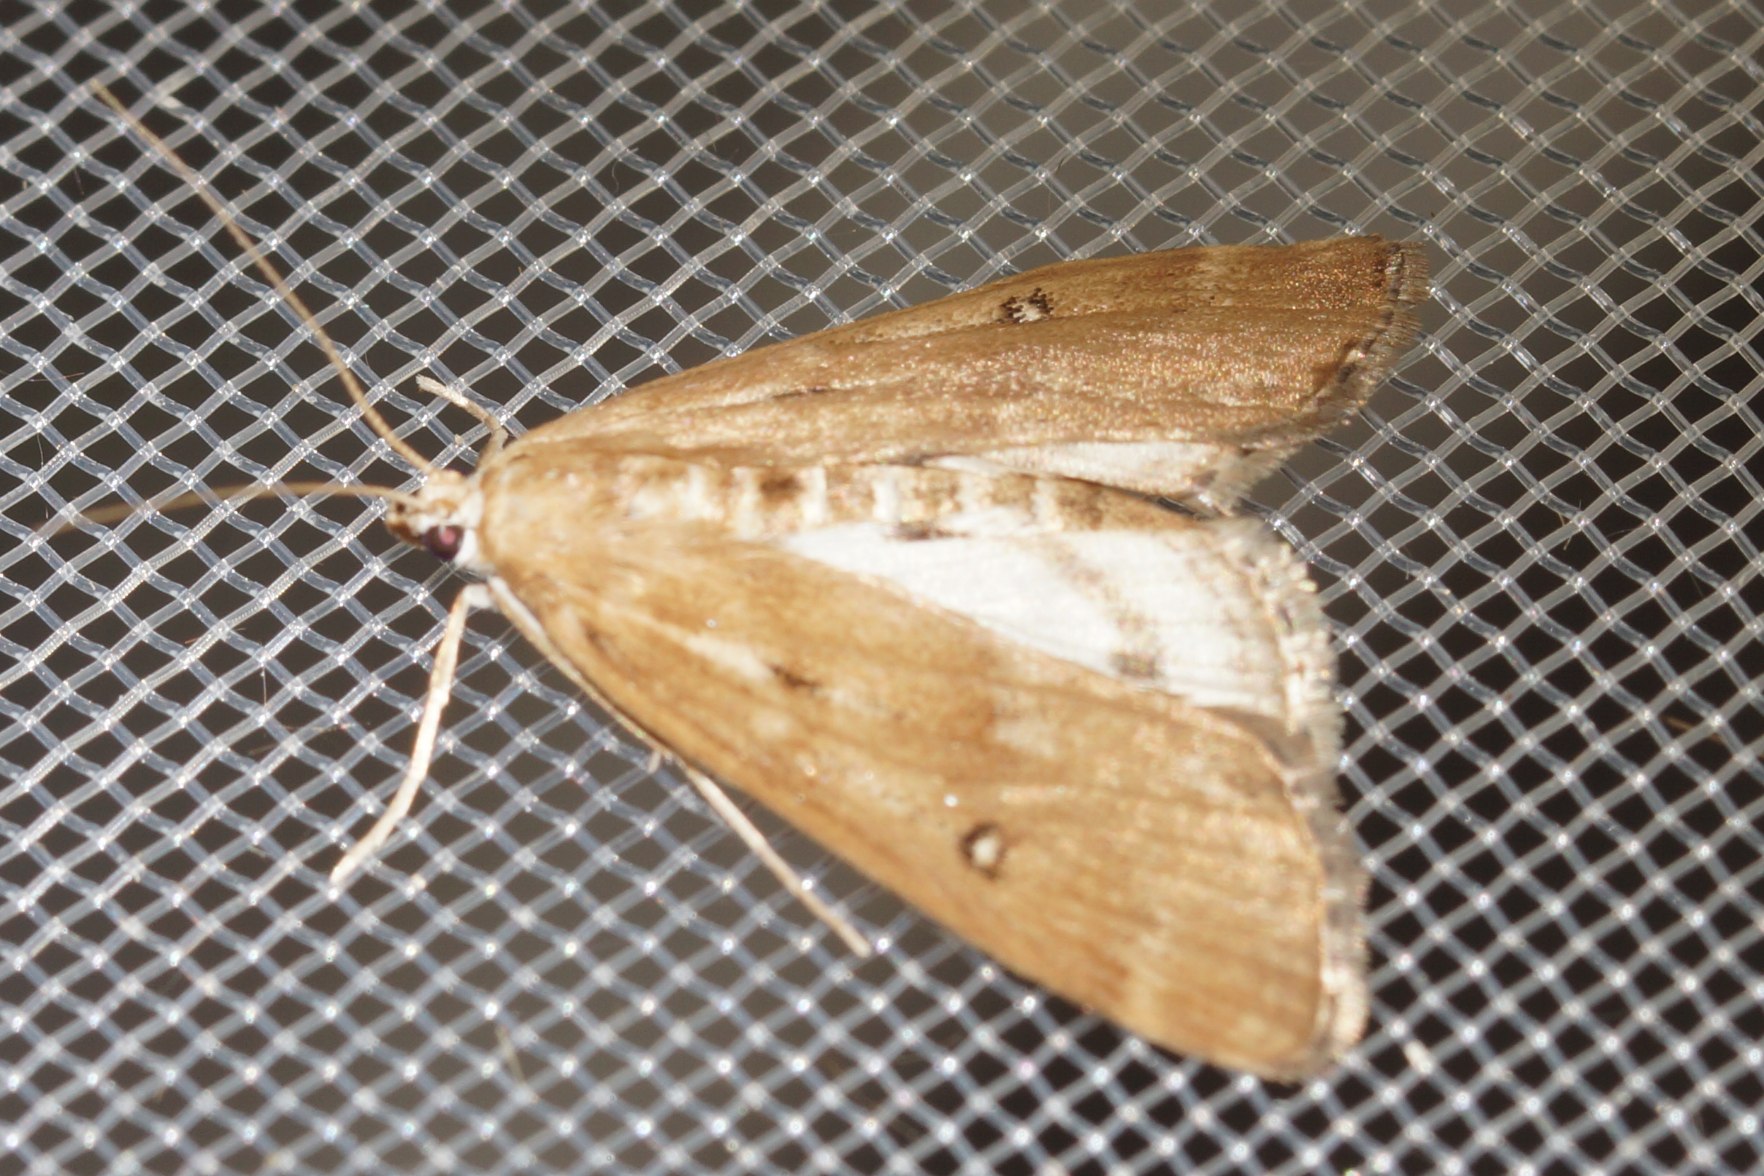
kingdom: Animalia
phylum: Arthropoda
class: Insecta
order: Lepidoptera
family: Crambidae
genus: Parapoynx
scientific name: Parapoynx stratiotata
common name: Vandpesthalvmøl
